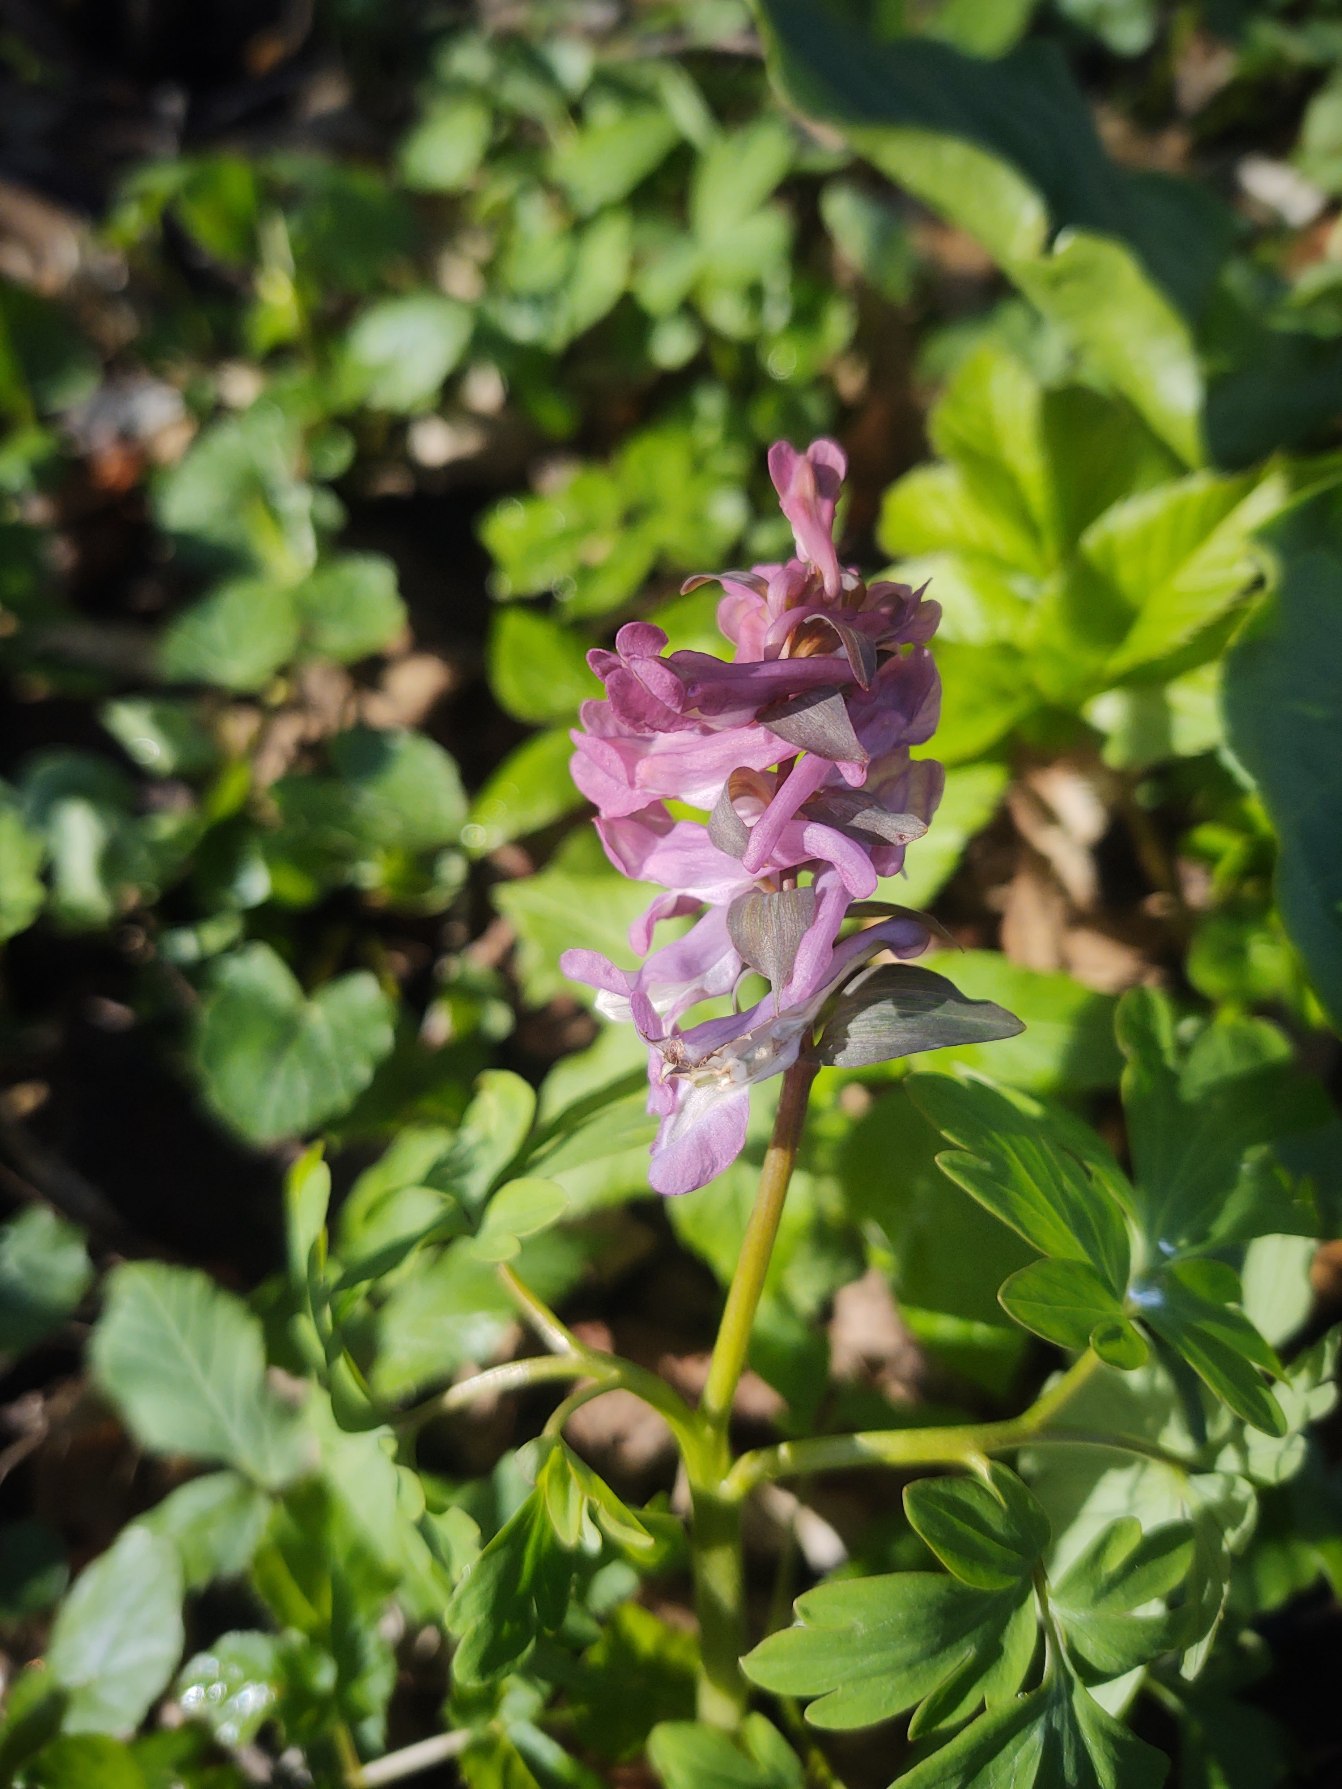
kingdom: Plantae
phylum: Tracheophyta
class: Magnoliopsida
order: Ranunculales
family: Papaveraceae
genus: Corydalis
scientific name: Corydalis cava
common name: Hulrodet lærkespore
